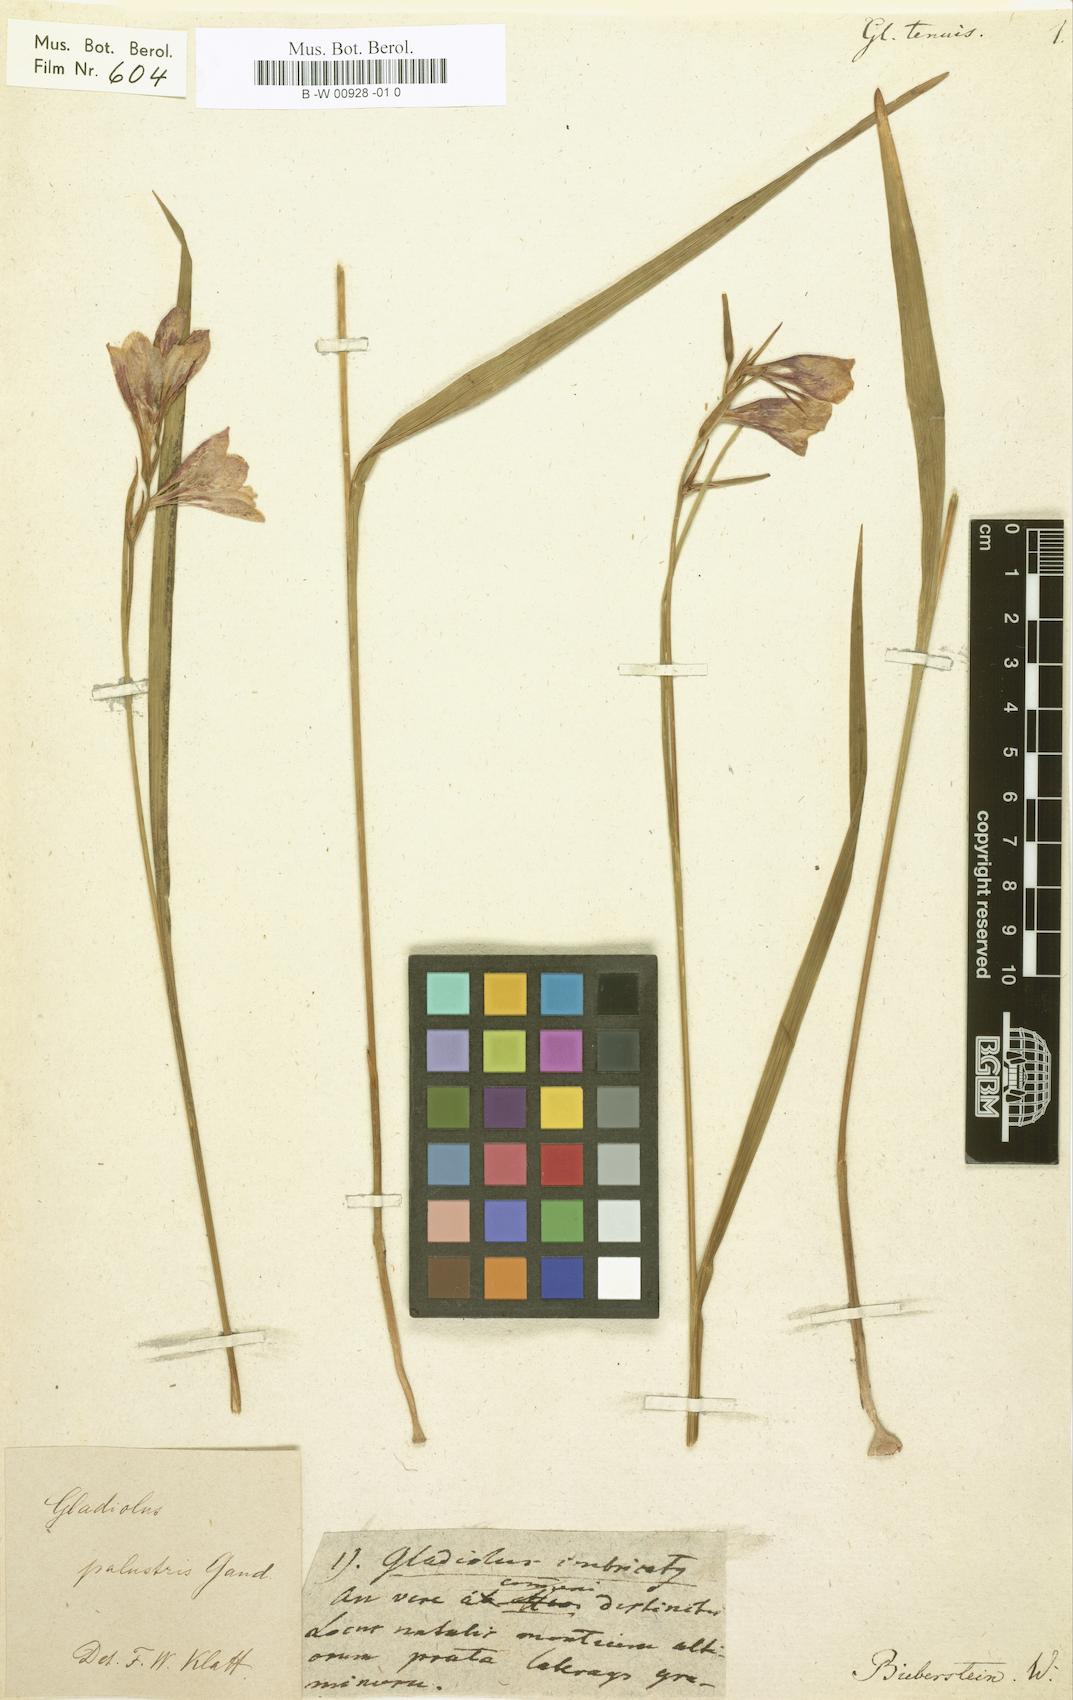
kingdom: Plantae
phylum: Tracheophyta
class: Liliopsida
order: Asparagales
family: Iridaceae
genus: Gladiolus
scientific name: Gladiolus tenuis
